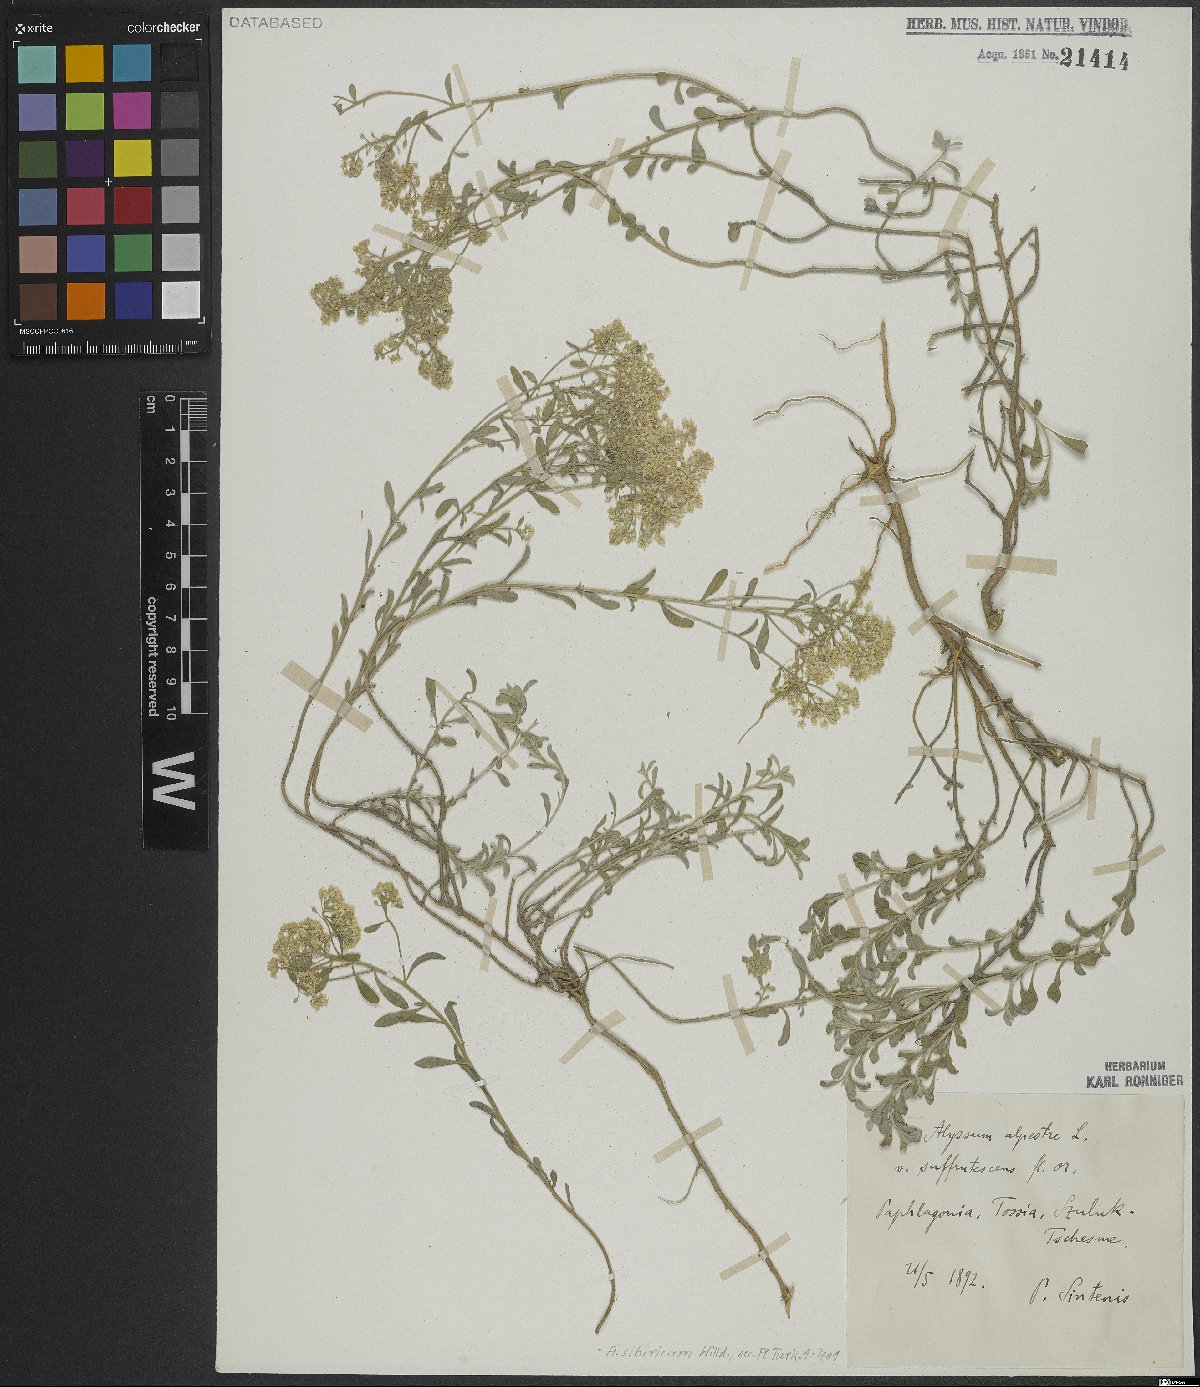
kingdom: Plantae
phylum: Tracheophyta
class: Magnoliopsida
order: Brassicales
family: Brassicaceae
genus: Odontarrhena
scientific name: Odontarrhena sibirica
